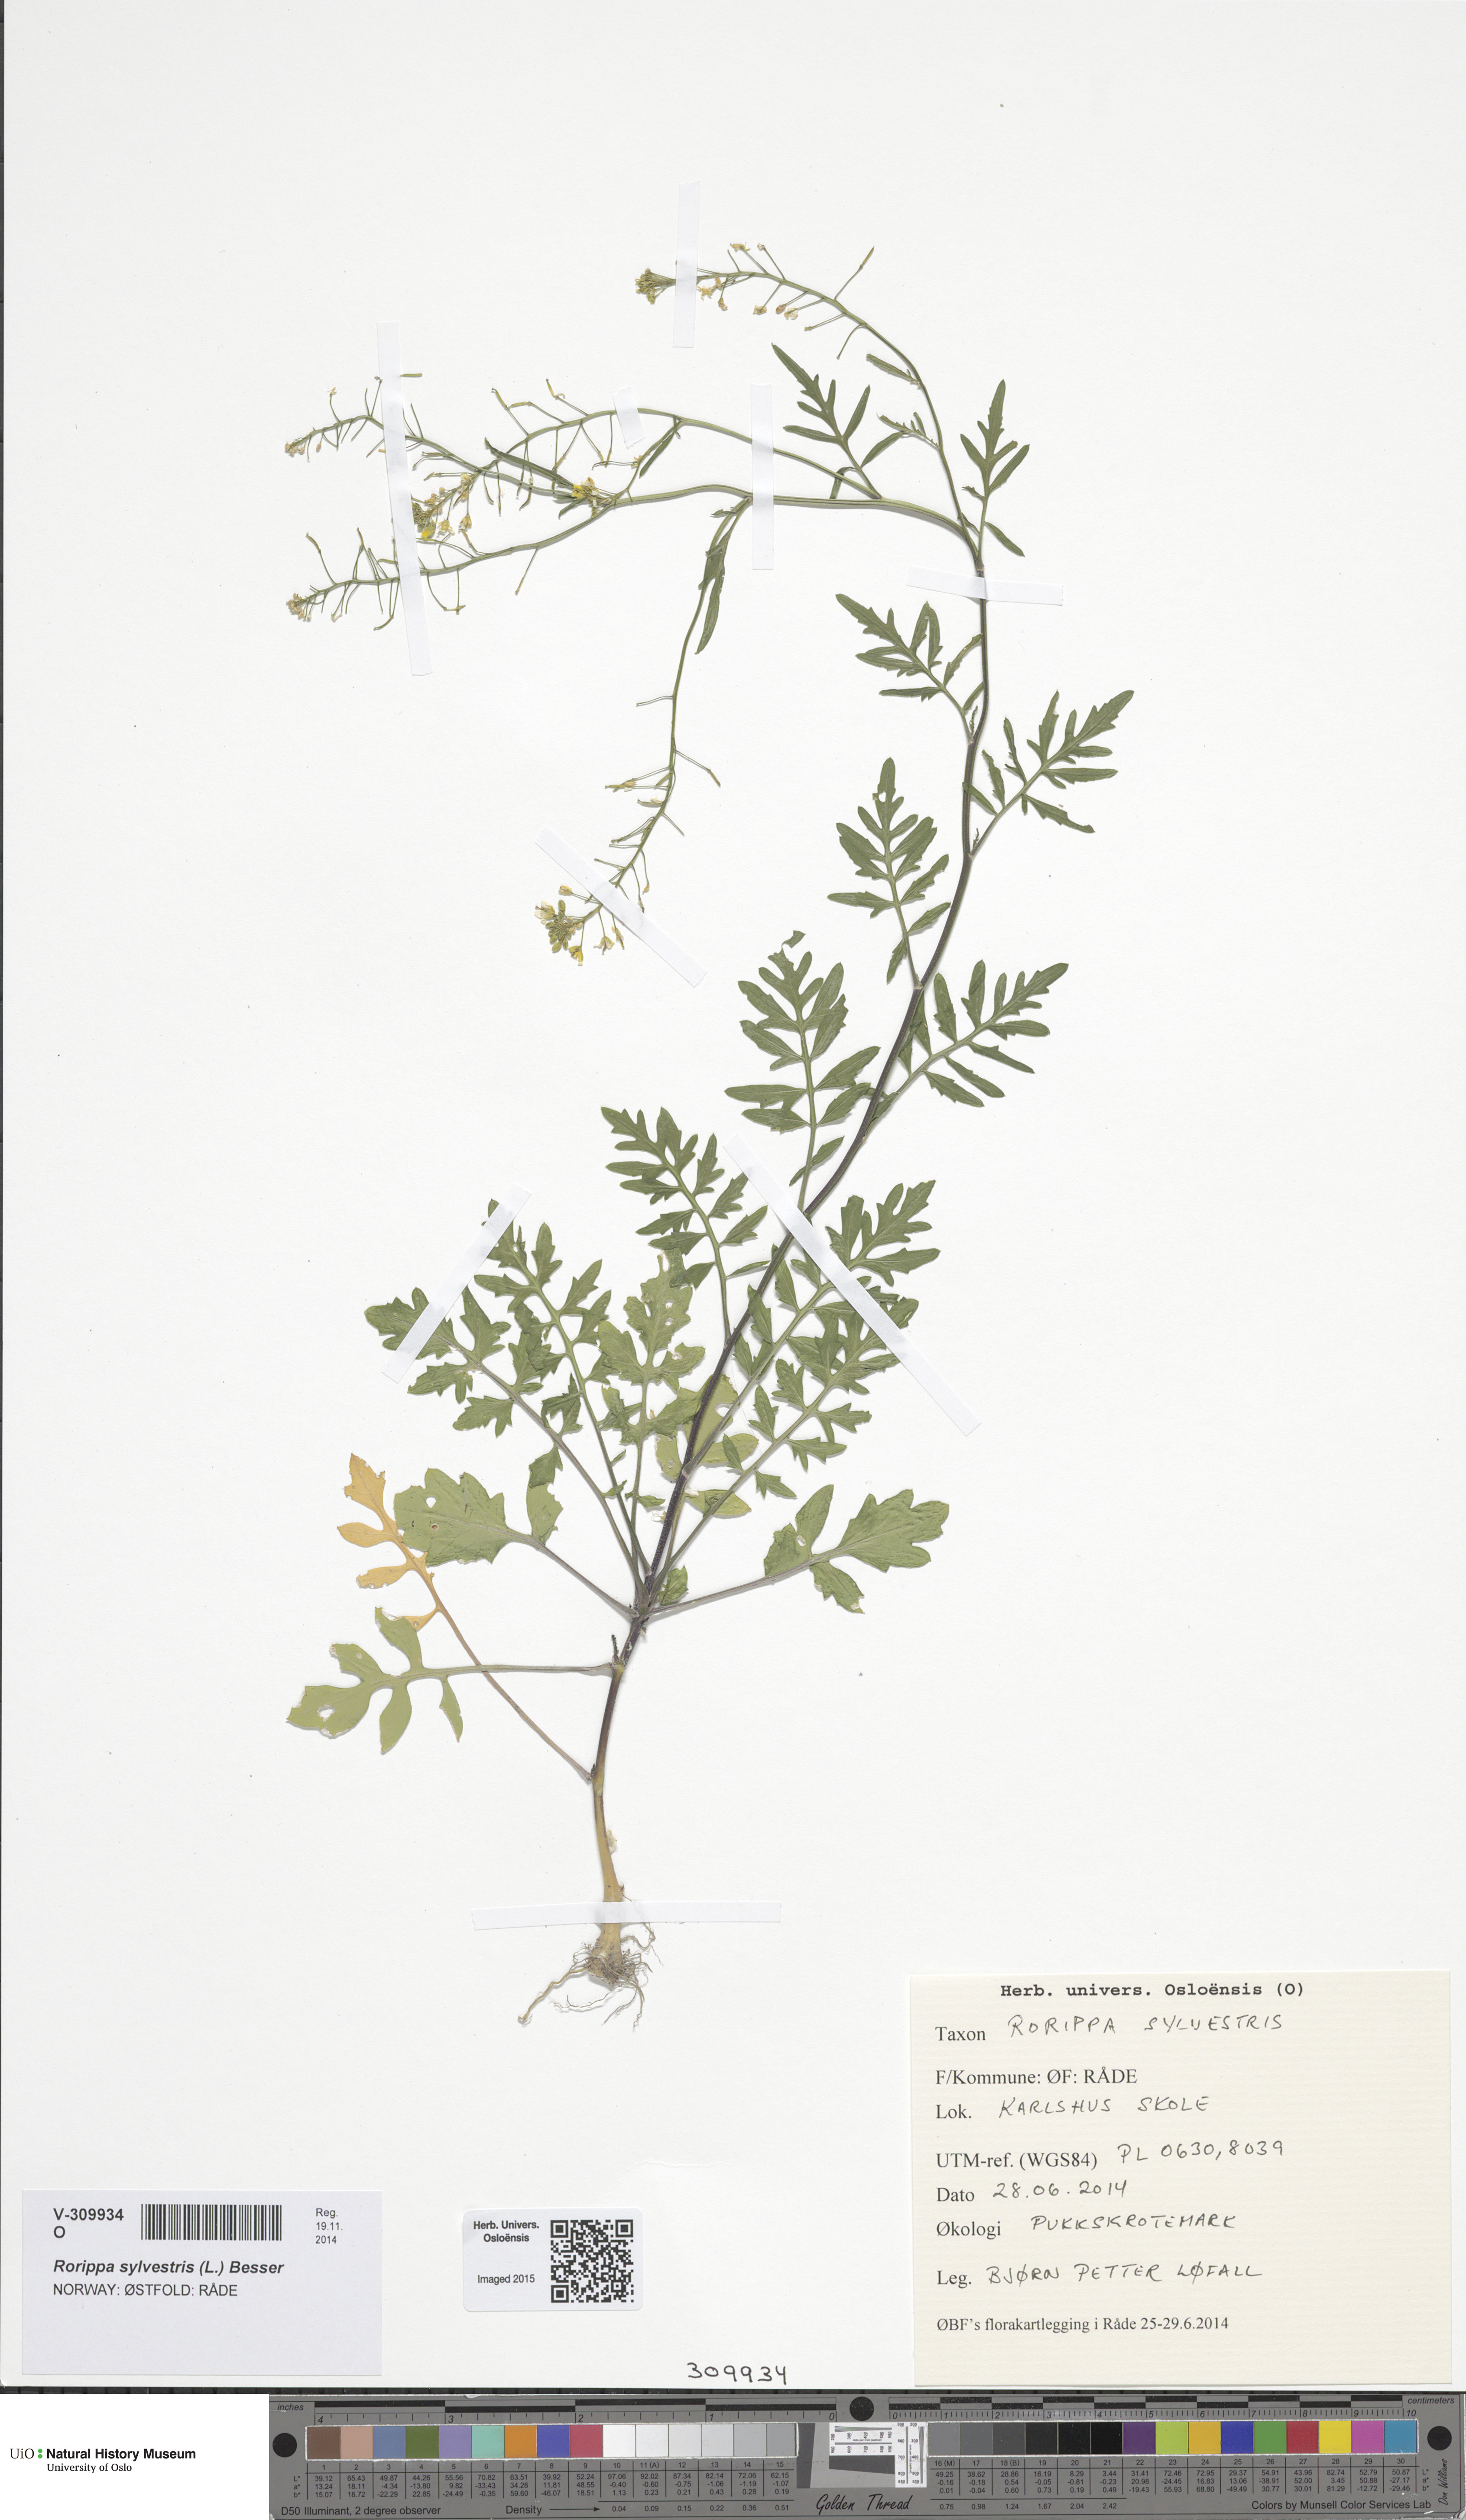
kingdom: Plantae
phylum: Tracheophyta
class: Magnoliopsida
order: Brassicales
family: Brassicaceae
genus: Rorippa
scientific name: Rorippa sylvestris
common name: Creeping yellowcress
